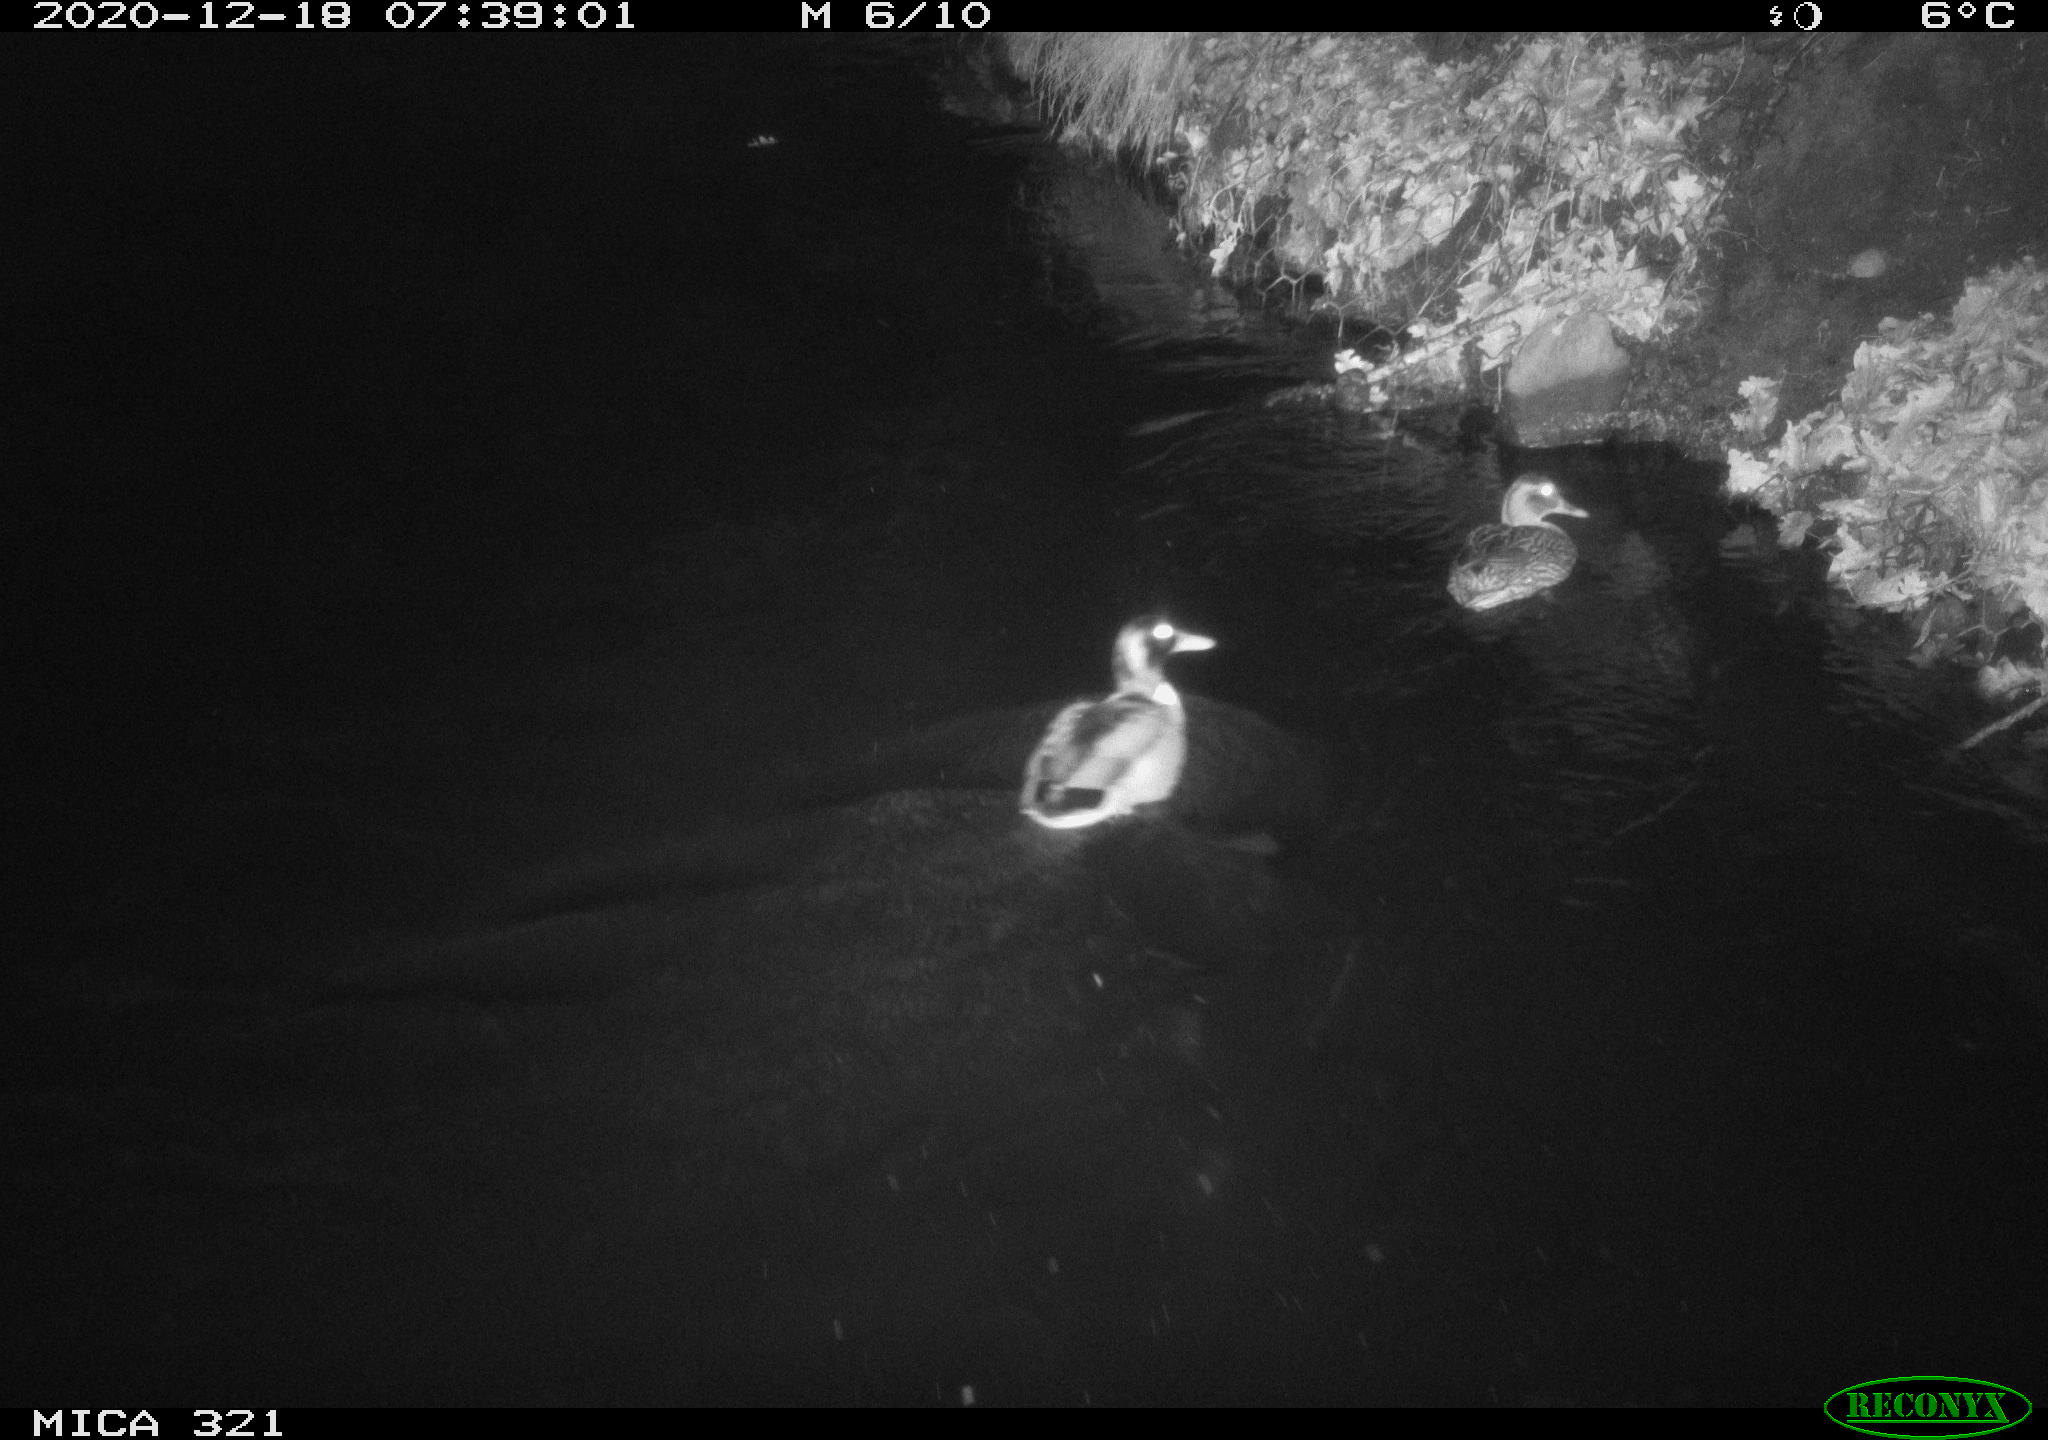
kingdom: Animalia
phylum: Chordata
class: Aves
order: Anseriformes
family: Anatidae
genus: Anas
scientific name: Anas platyrhynchos
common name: Mallard
